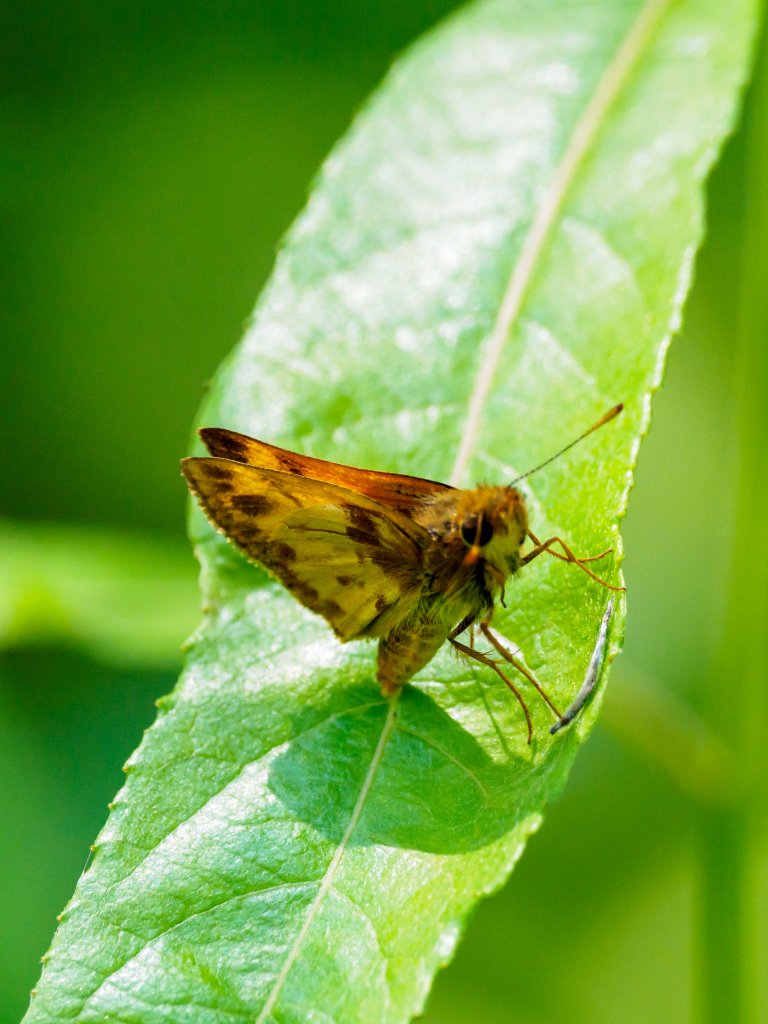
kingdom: Animalia
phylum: Arthropoda
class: Insecta
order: Lepidoptera
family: Hesperiidae
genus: Lon
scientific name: Lon hobomok
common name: Hobomok Skipper
